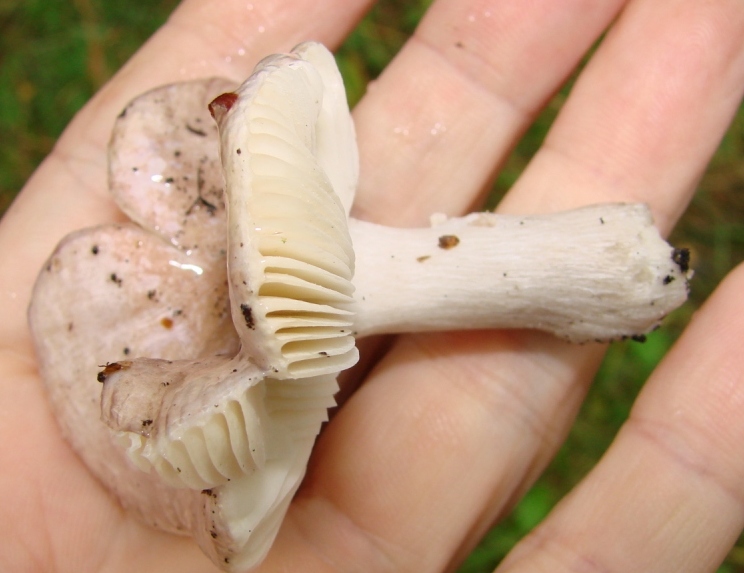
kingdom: Fungi
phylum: Basidiomycota
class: Agaricomycetes
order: Russulales
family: Russulaceae
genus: Russula
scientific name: Russula
